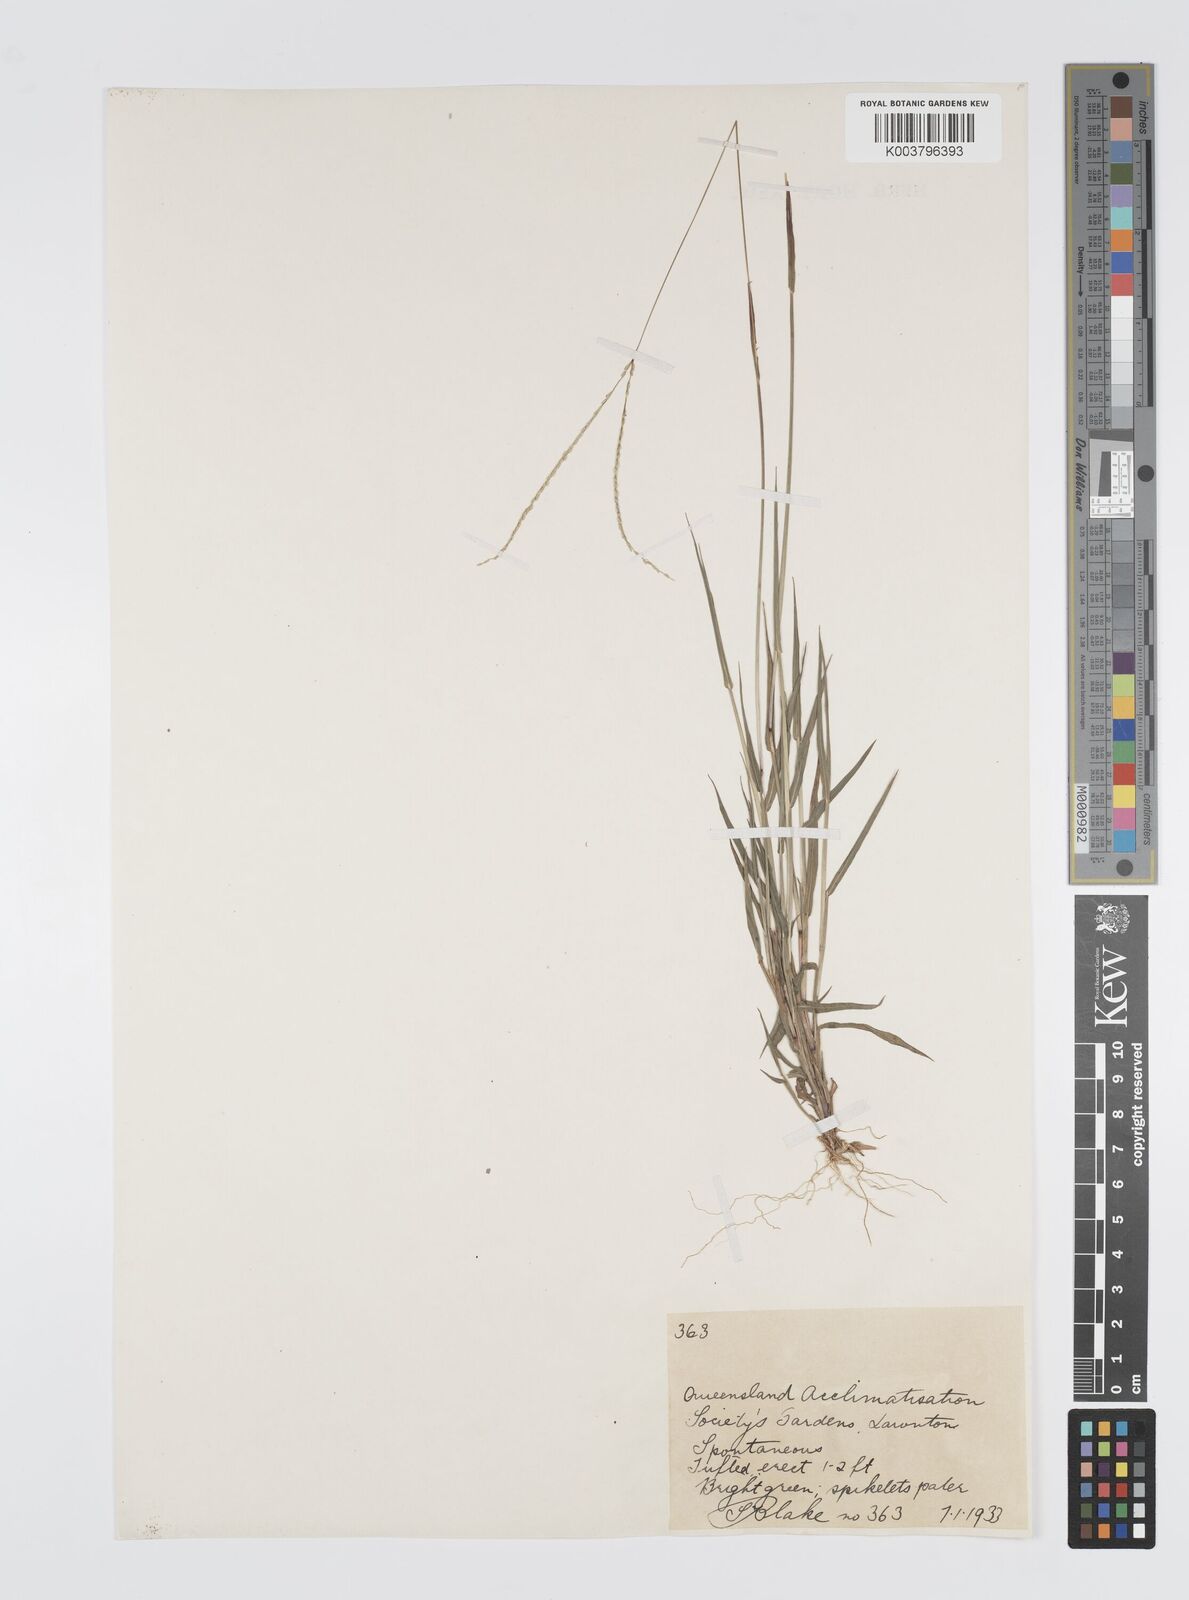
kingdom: Plantae
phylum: Tracheophyta
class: Liliopsida
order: Poales
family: Poaceae
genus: Digitaria
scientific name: Digitaria violascens
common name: Violet crabgrass
